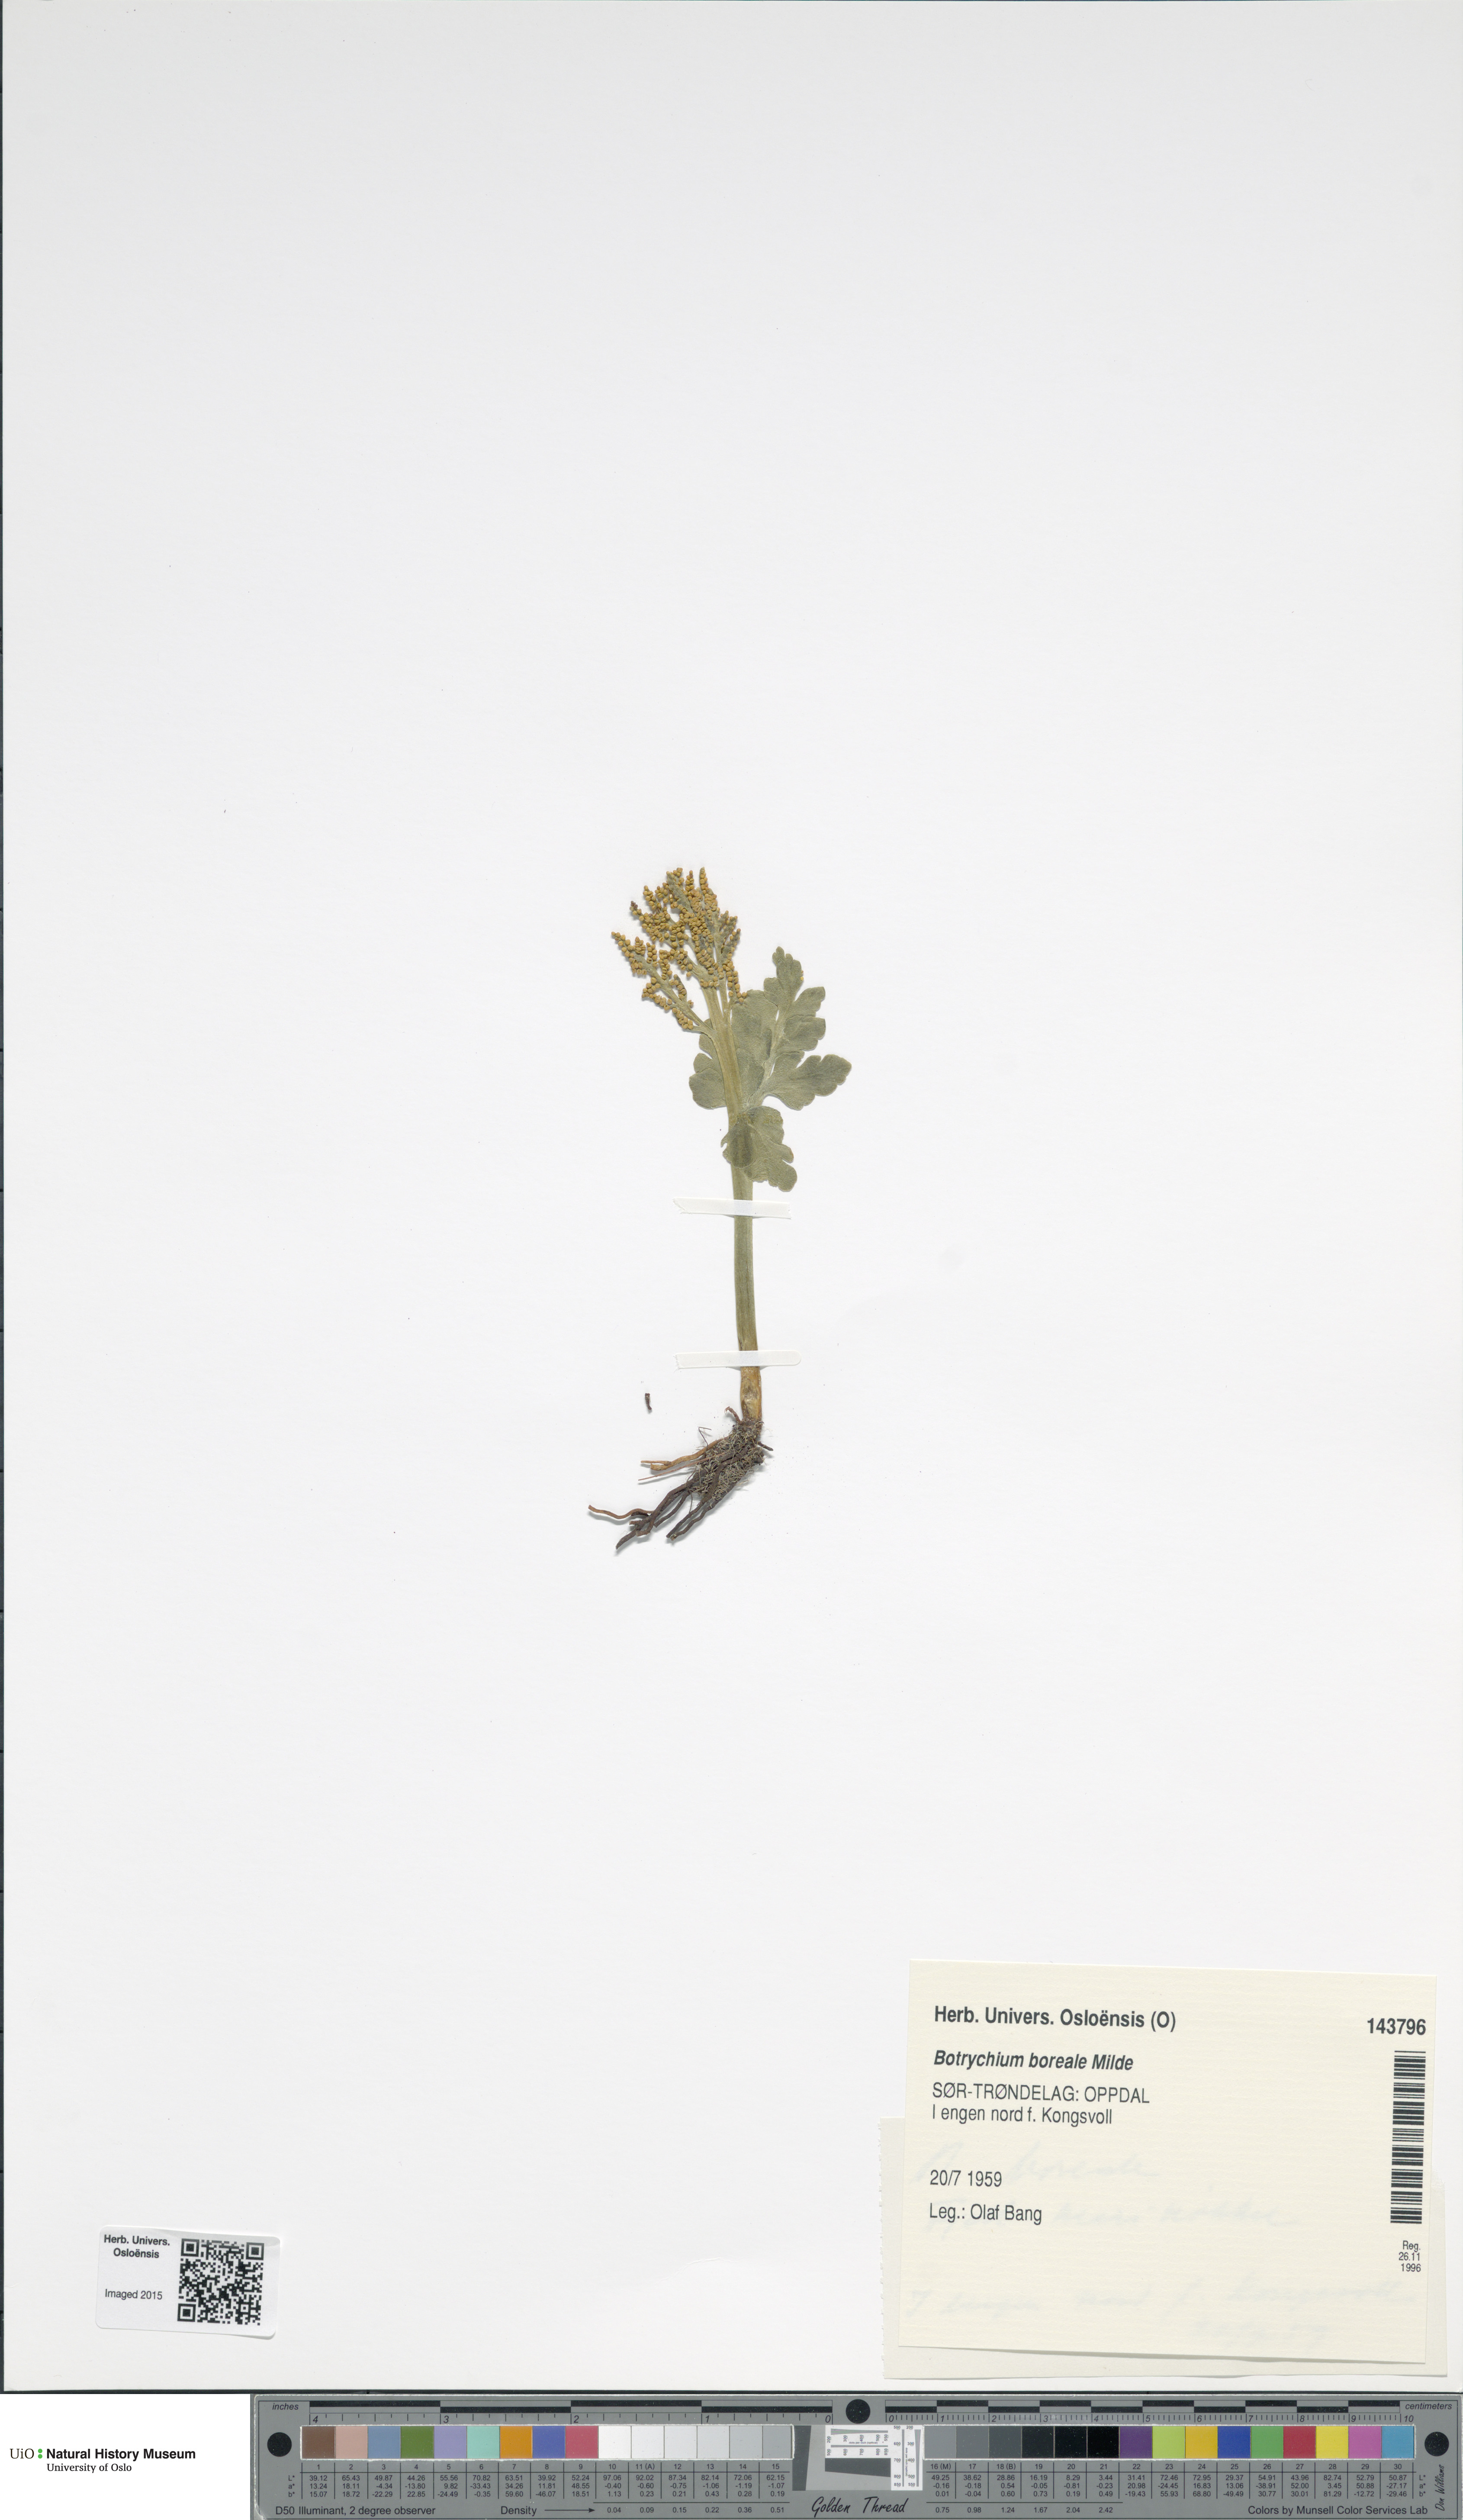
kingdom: Plantae
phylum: Tracheophyta
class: Polypodiopsida
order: Ophioglossales
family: Ophioglossaceae
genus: Botrychium
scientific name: Botrychium boreale
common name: Boreal moonwort
